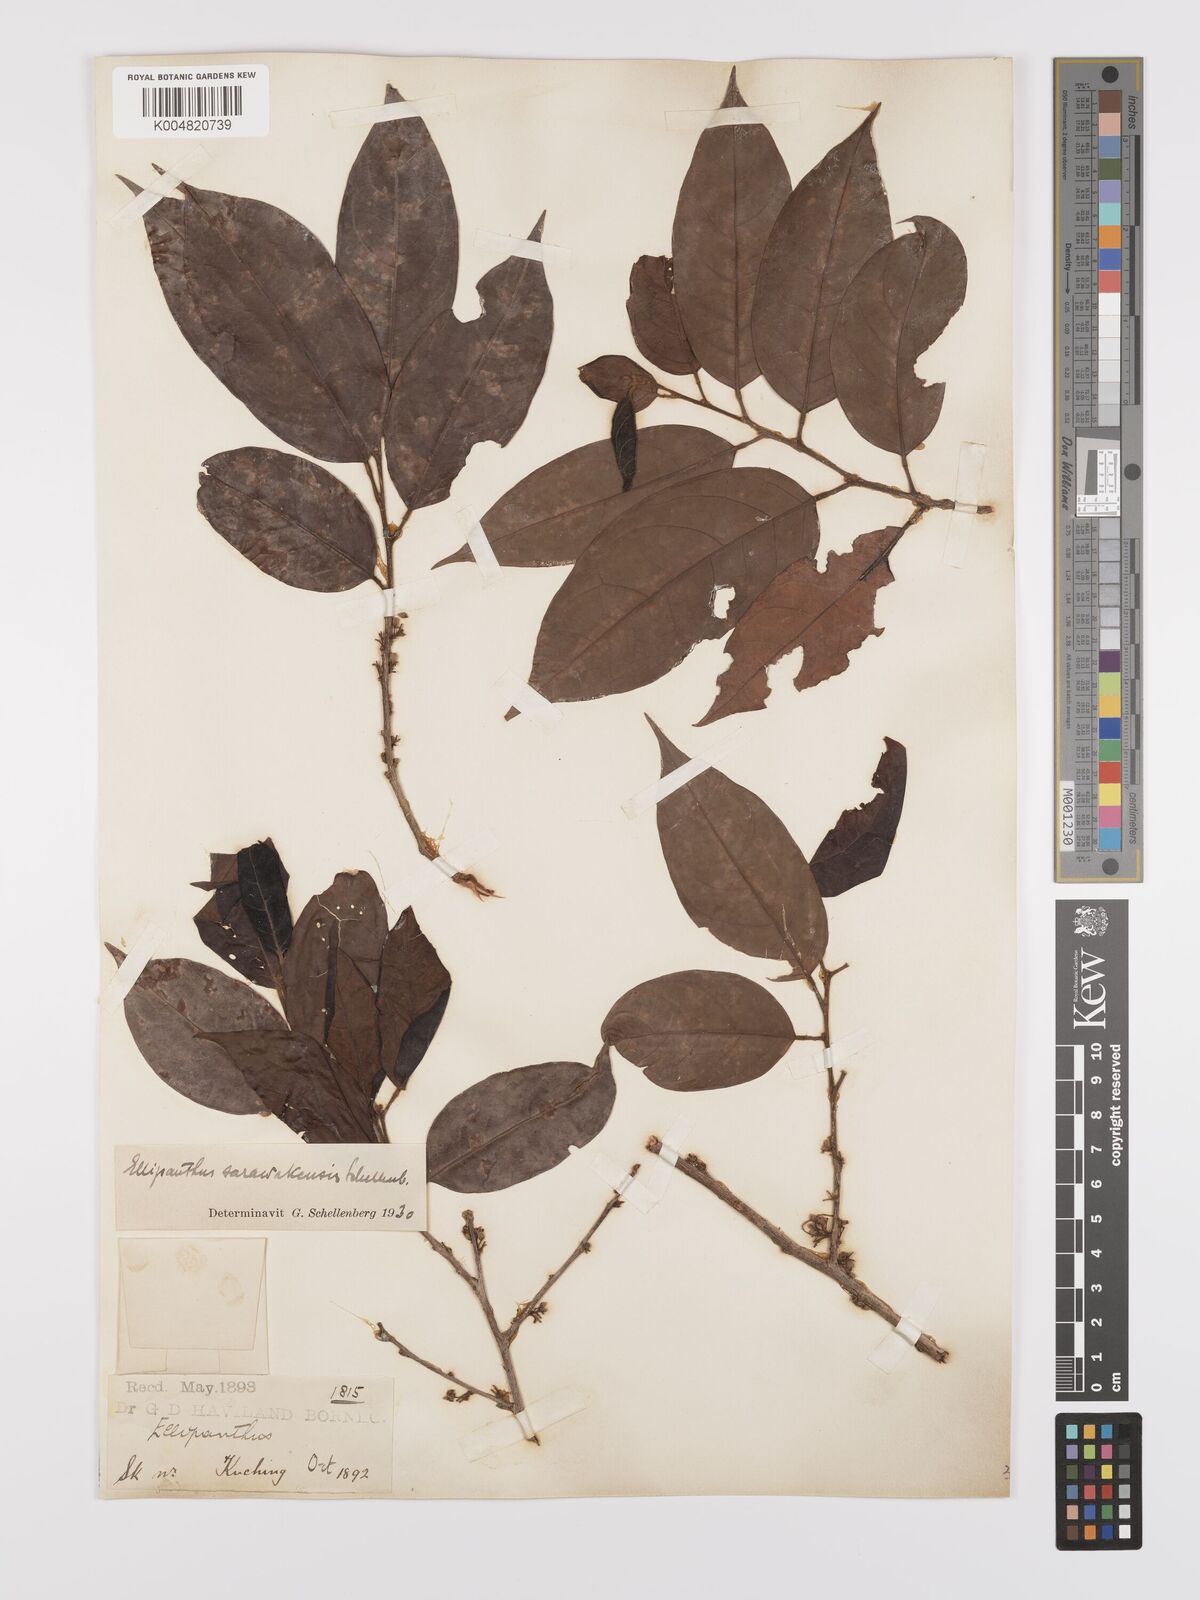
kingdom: Plantae
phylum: Tracheophyta
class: Magnoliopsida
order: Oxalidales
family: Connaraceae
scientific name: Connaraceae
